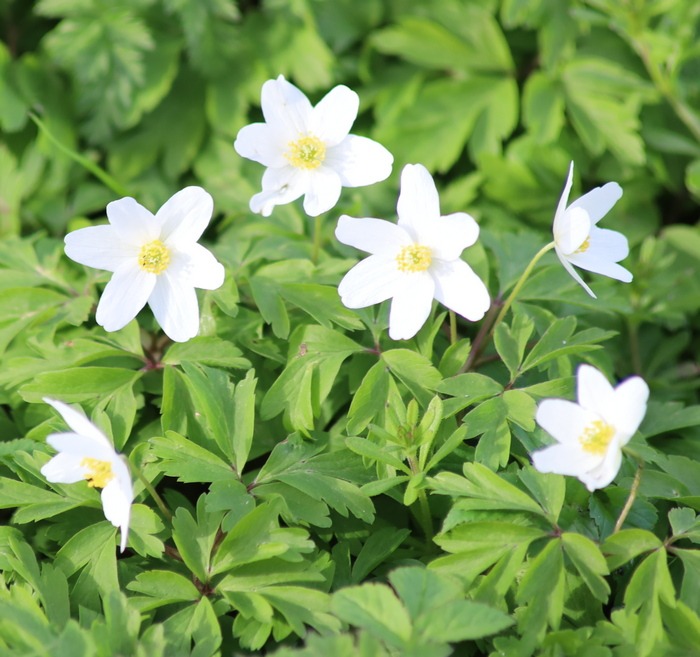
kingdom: Plantae
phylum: Tracheophyta
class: Magnoliopsida
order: Ranunculales
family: Ranunculaceae
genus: Anemone
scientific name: Anemone nemorosa
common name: Hvid anemone
